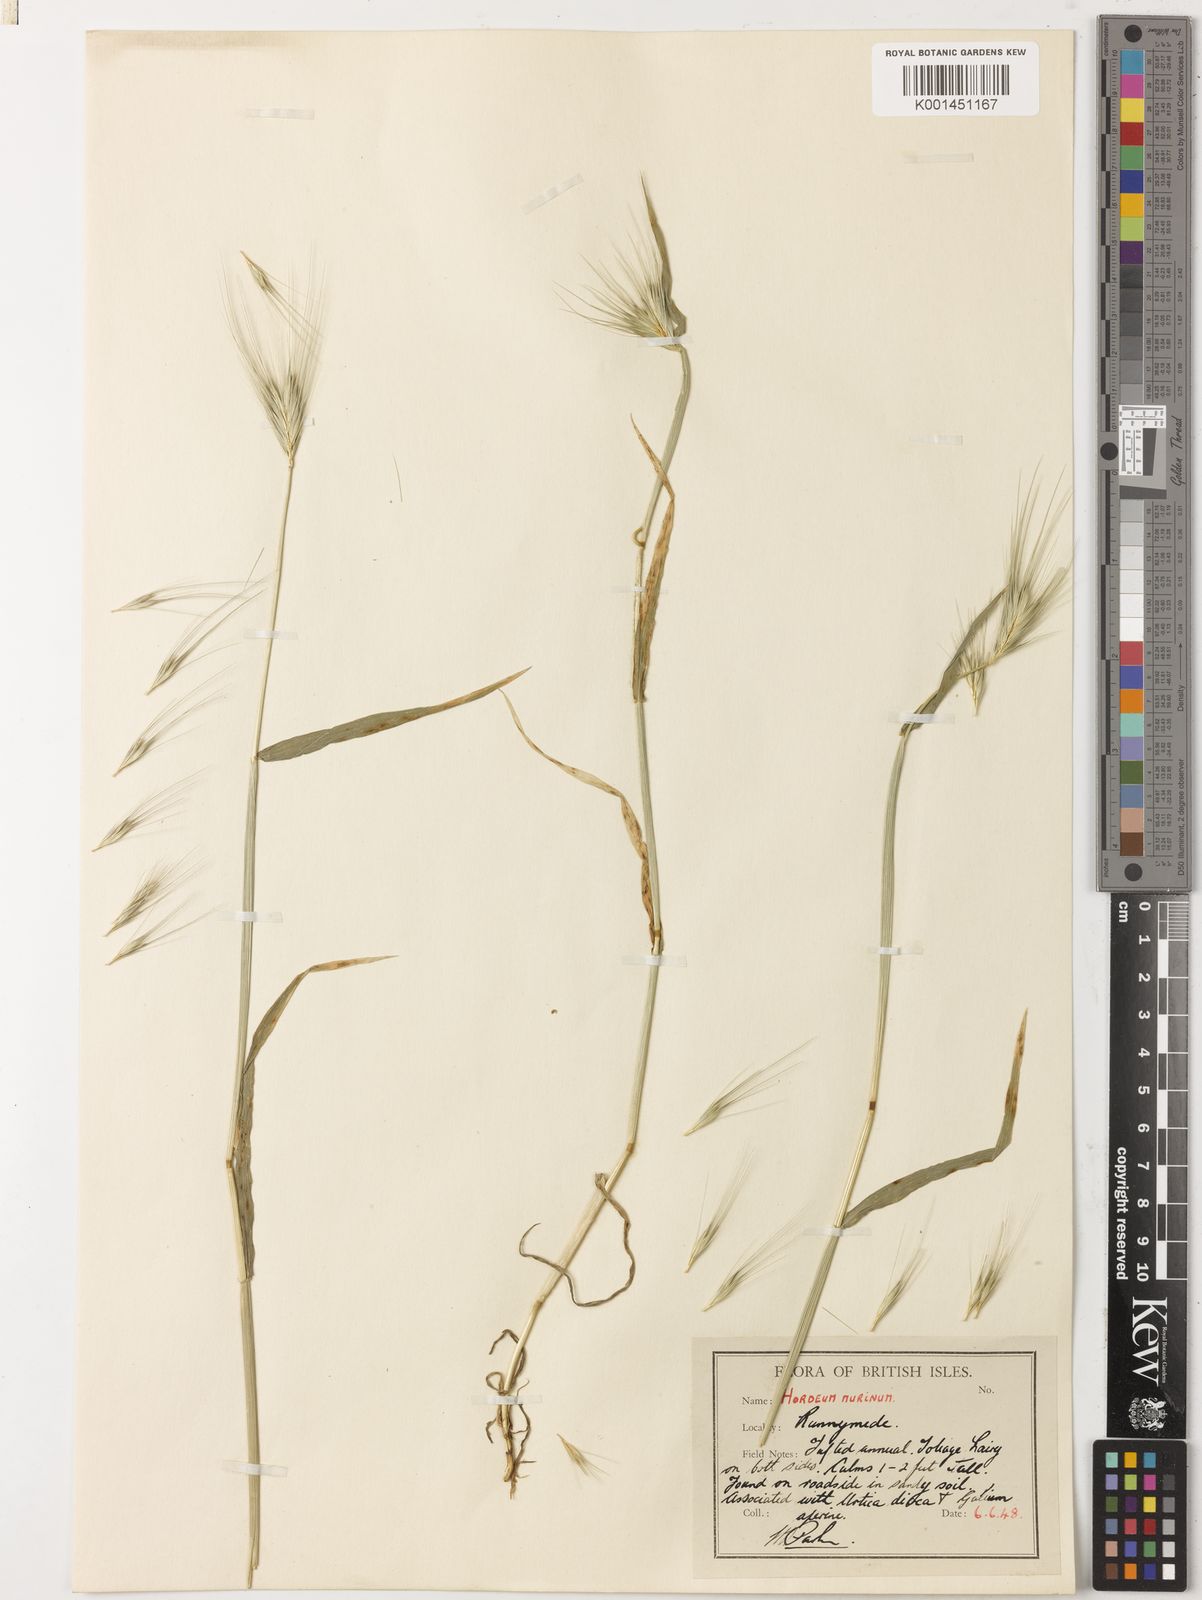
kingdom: Plantae
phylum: Tracheophyta
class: Liliopsida
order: Poales
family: Poaceae
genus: Hordeum
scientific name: Hordeum murinum
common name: Wall barley
